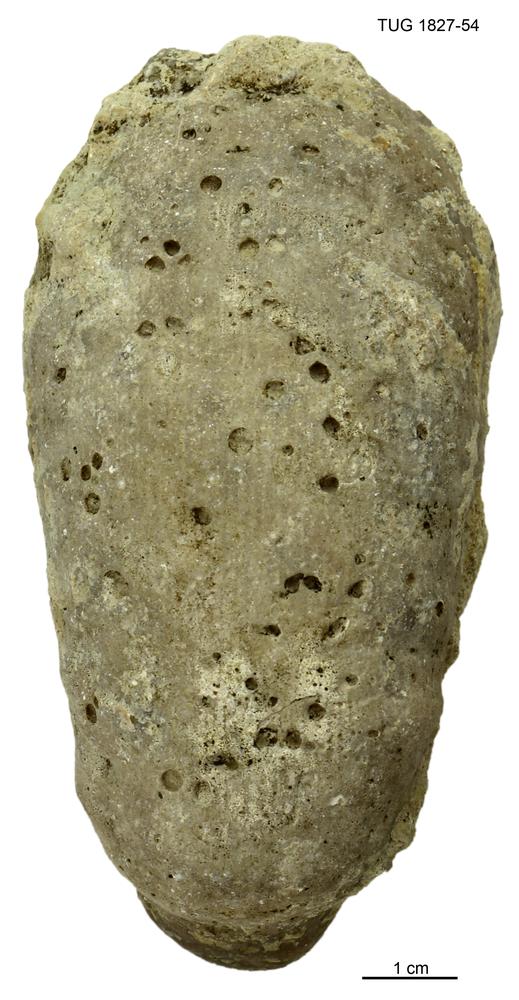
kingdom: Animalia
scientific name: Animalia
